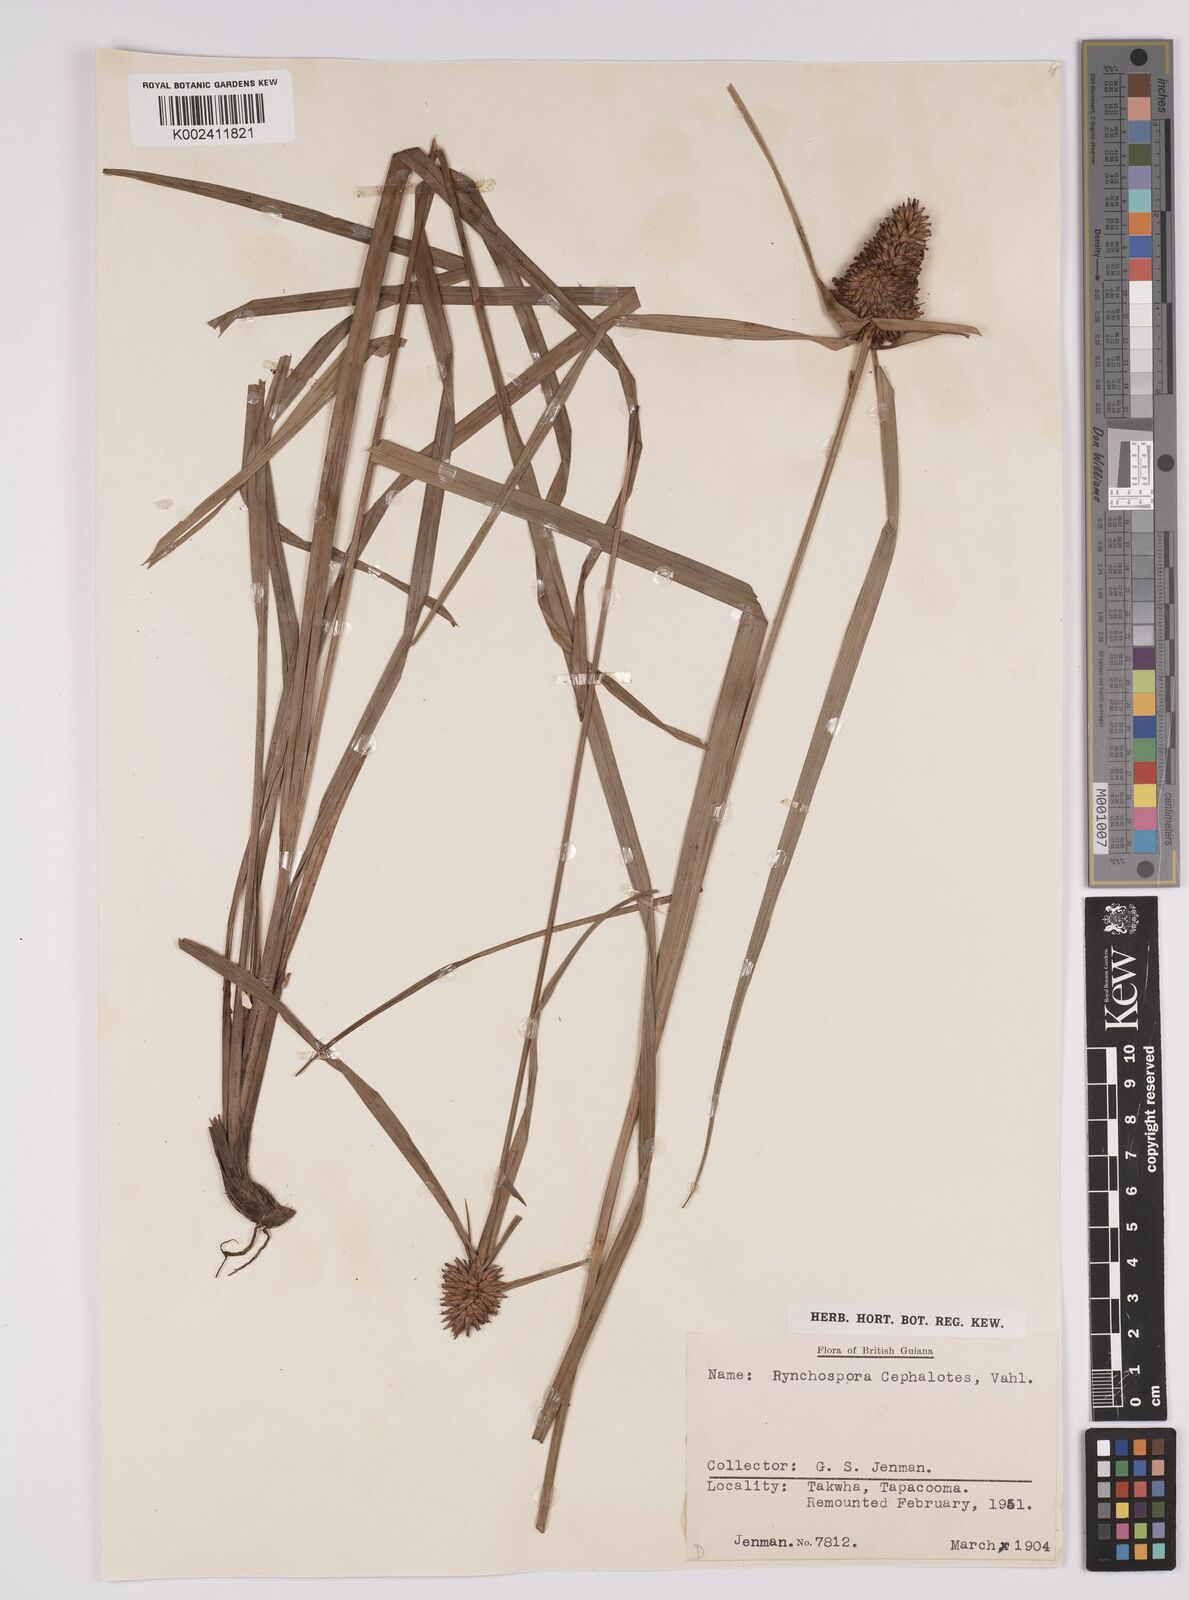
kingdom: Plantae
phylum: Tracheophyta
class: Liliopsida
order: Poales
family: Cyperaceae
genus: Rhynchospora
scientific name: Rhynchospora cephalotes
